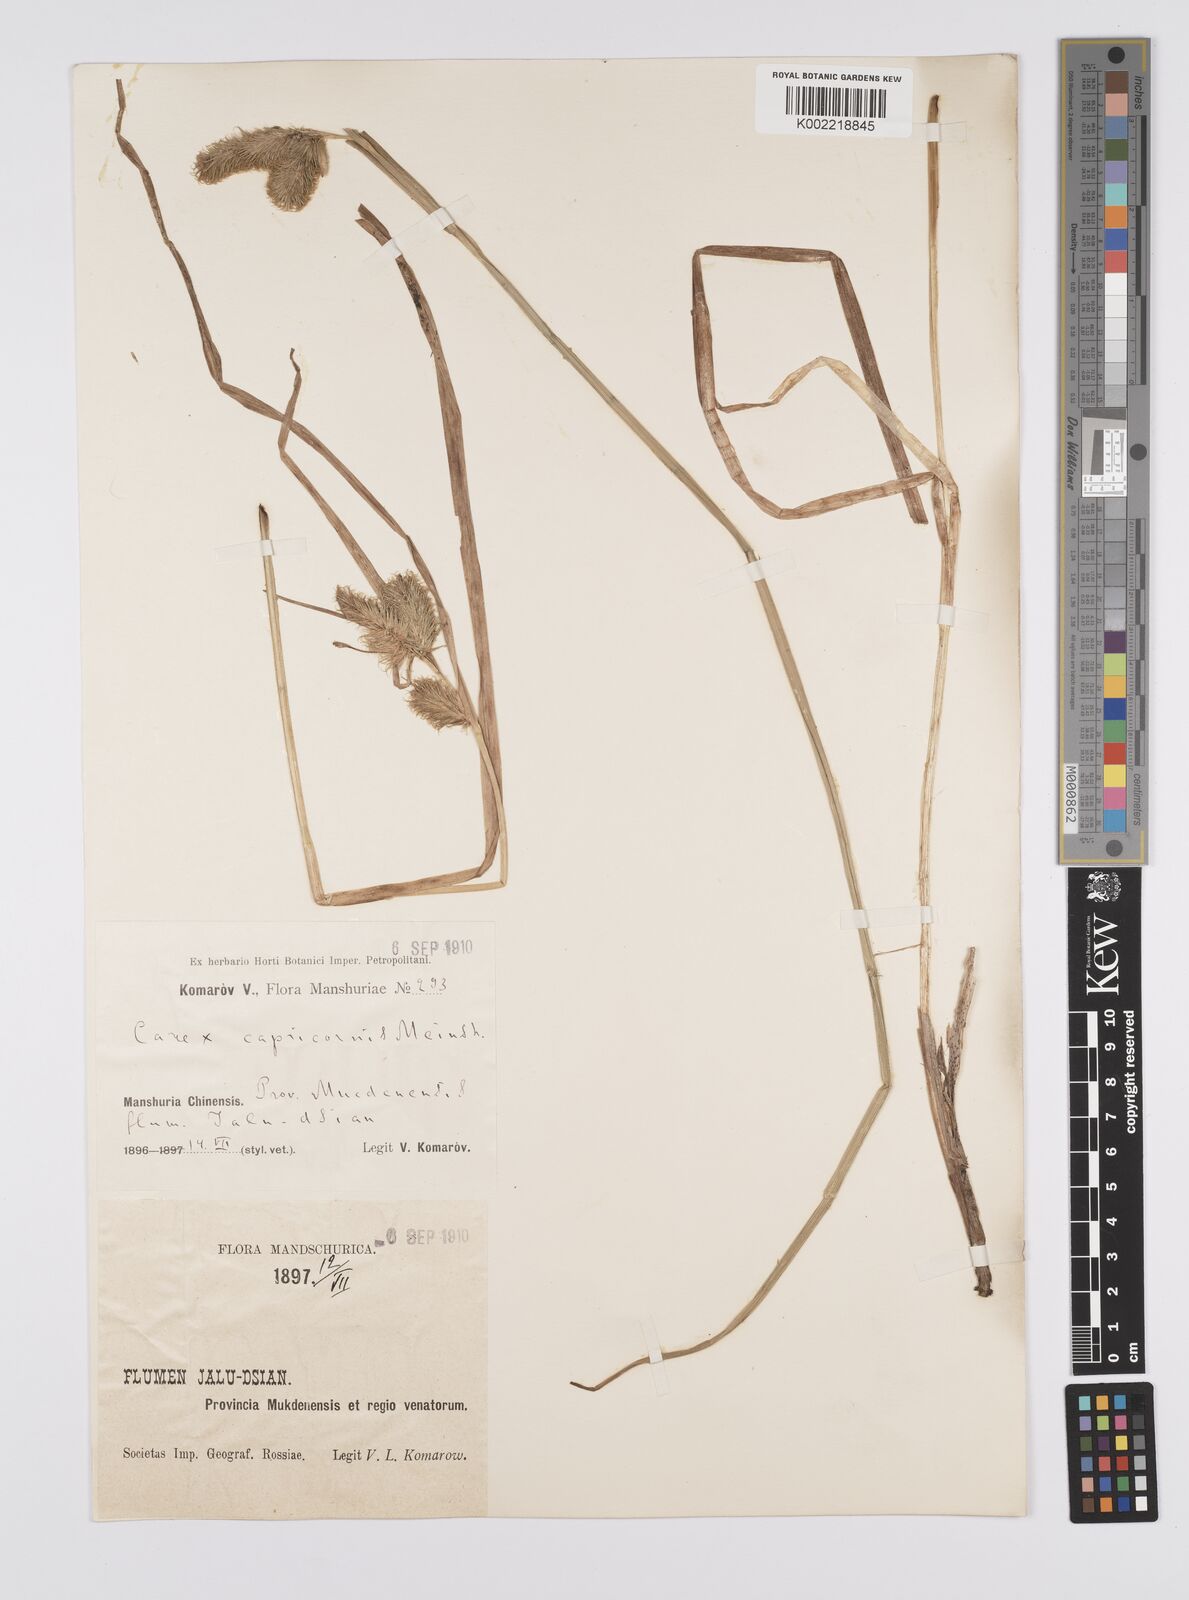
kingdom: Plantae
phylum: Tracheophyta
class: Liliopsida
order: Poales
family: Cyperaceae
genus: Carex
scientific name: Carex capricornis
